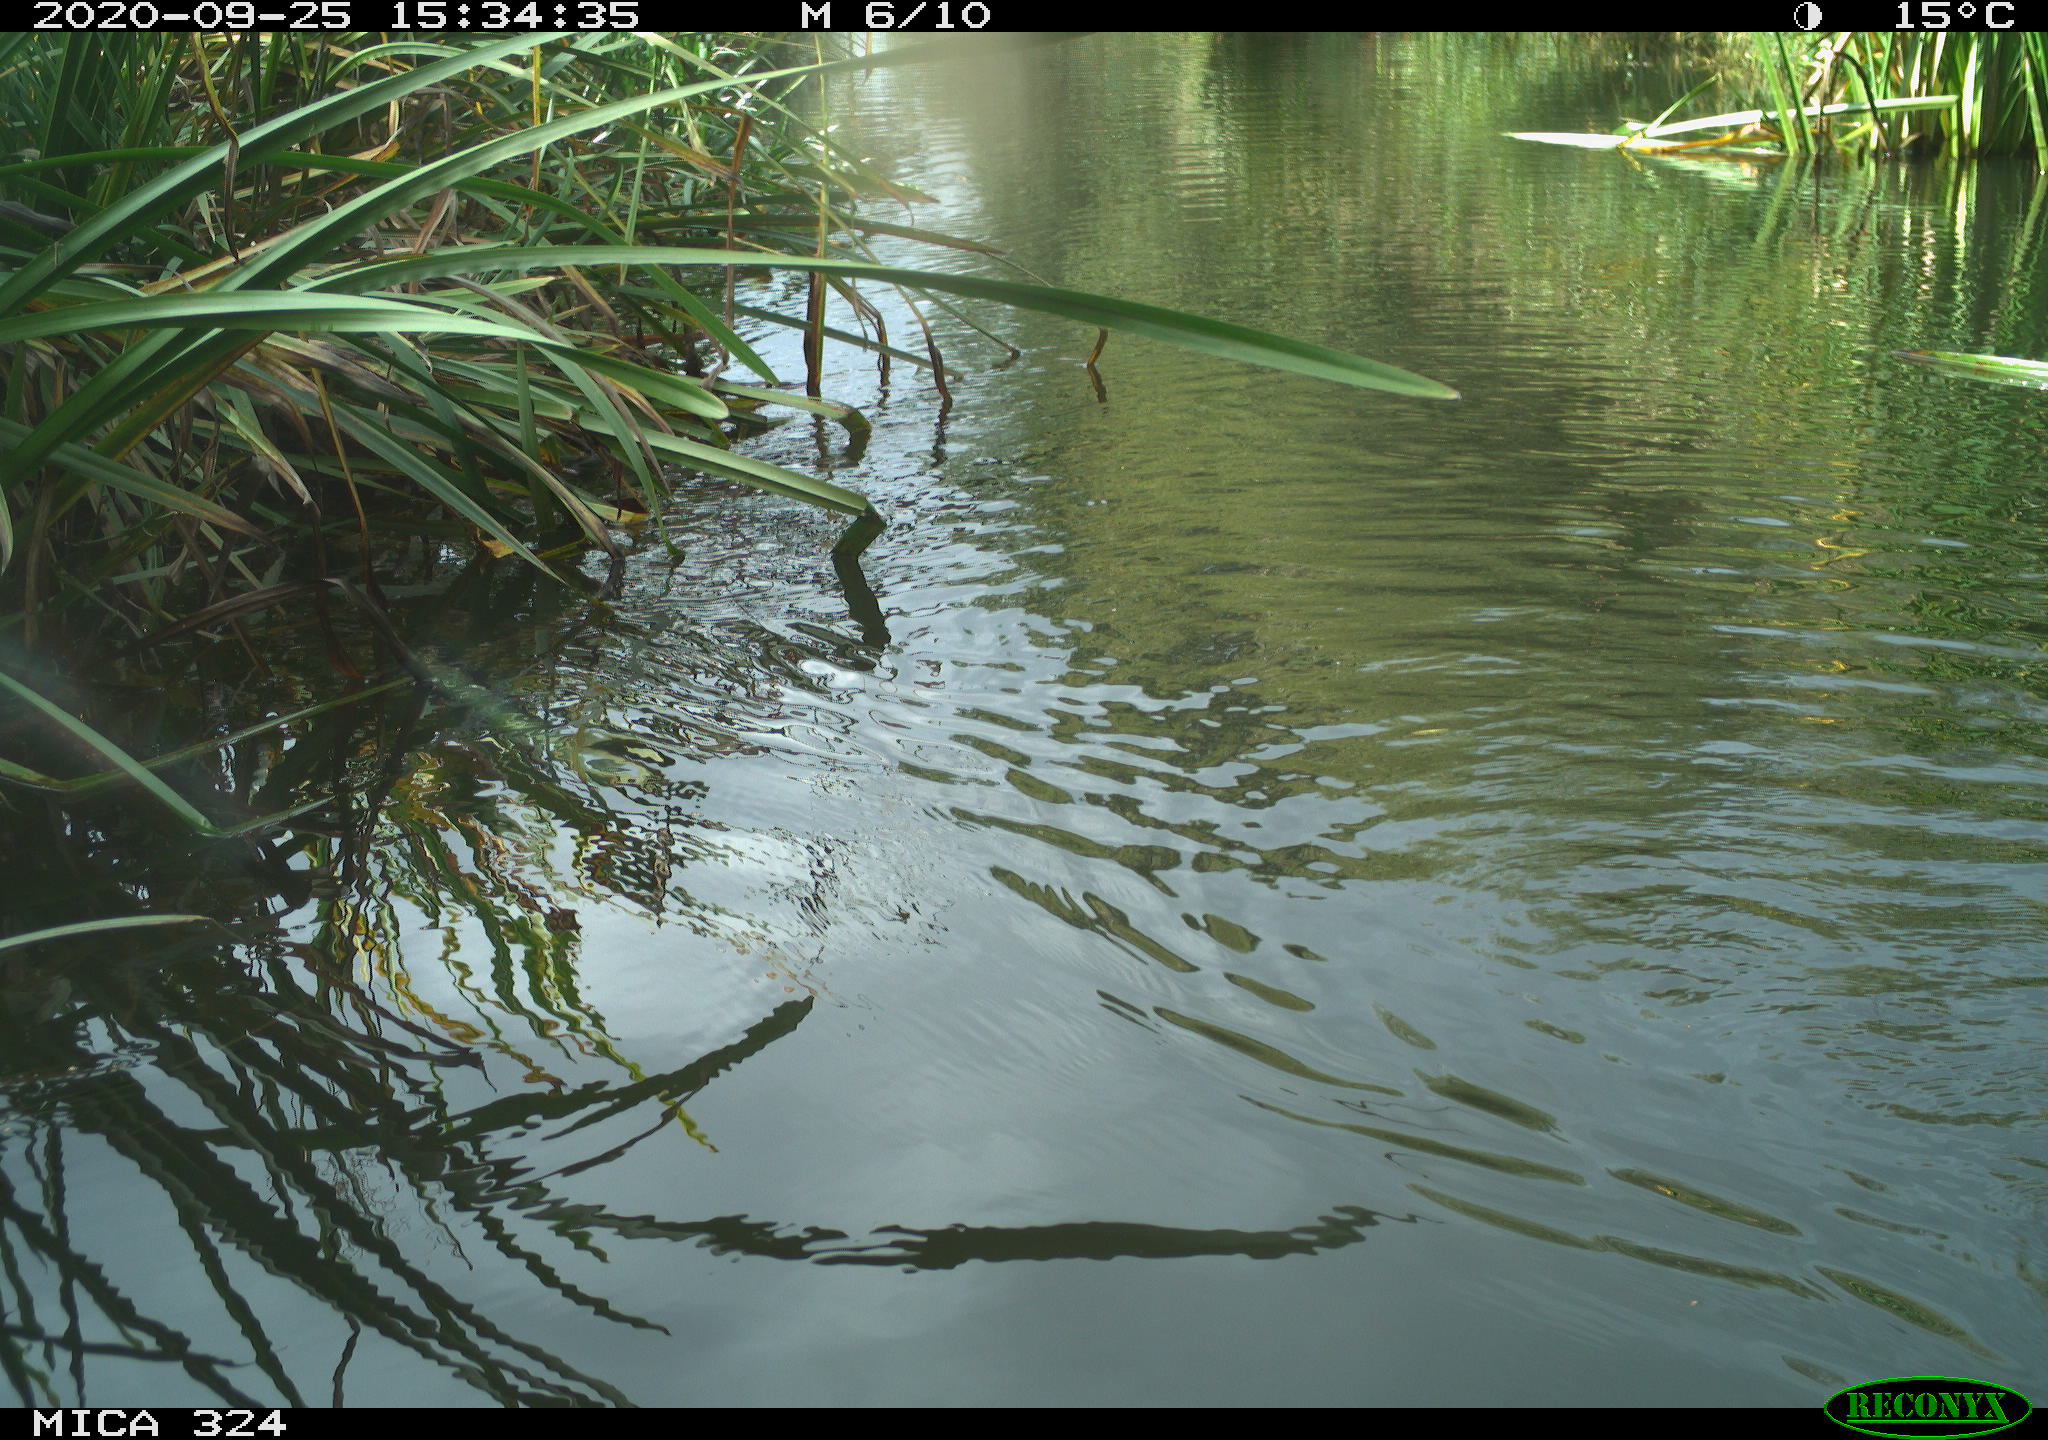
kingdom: Animalia
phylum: Chordata
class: Mammalia
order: Rodentia
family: Cricetidae
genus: Ondatra
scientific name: Ondatra zibethicus
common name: Muskrat
